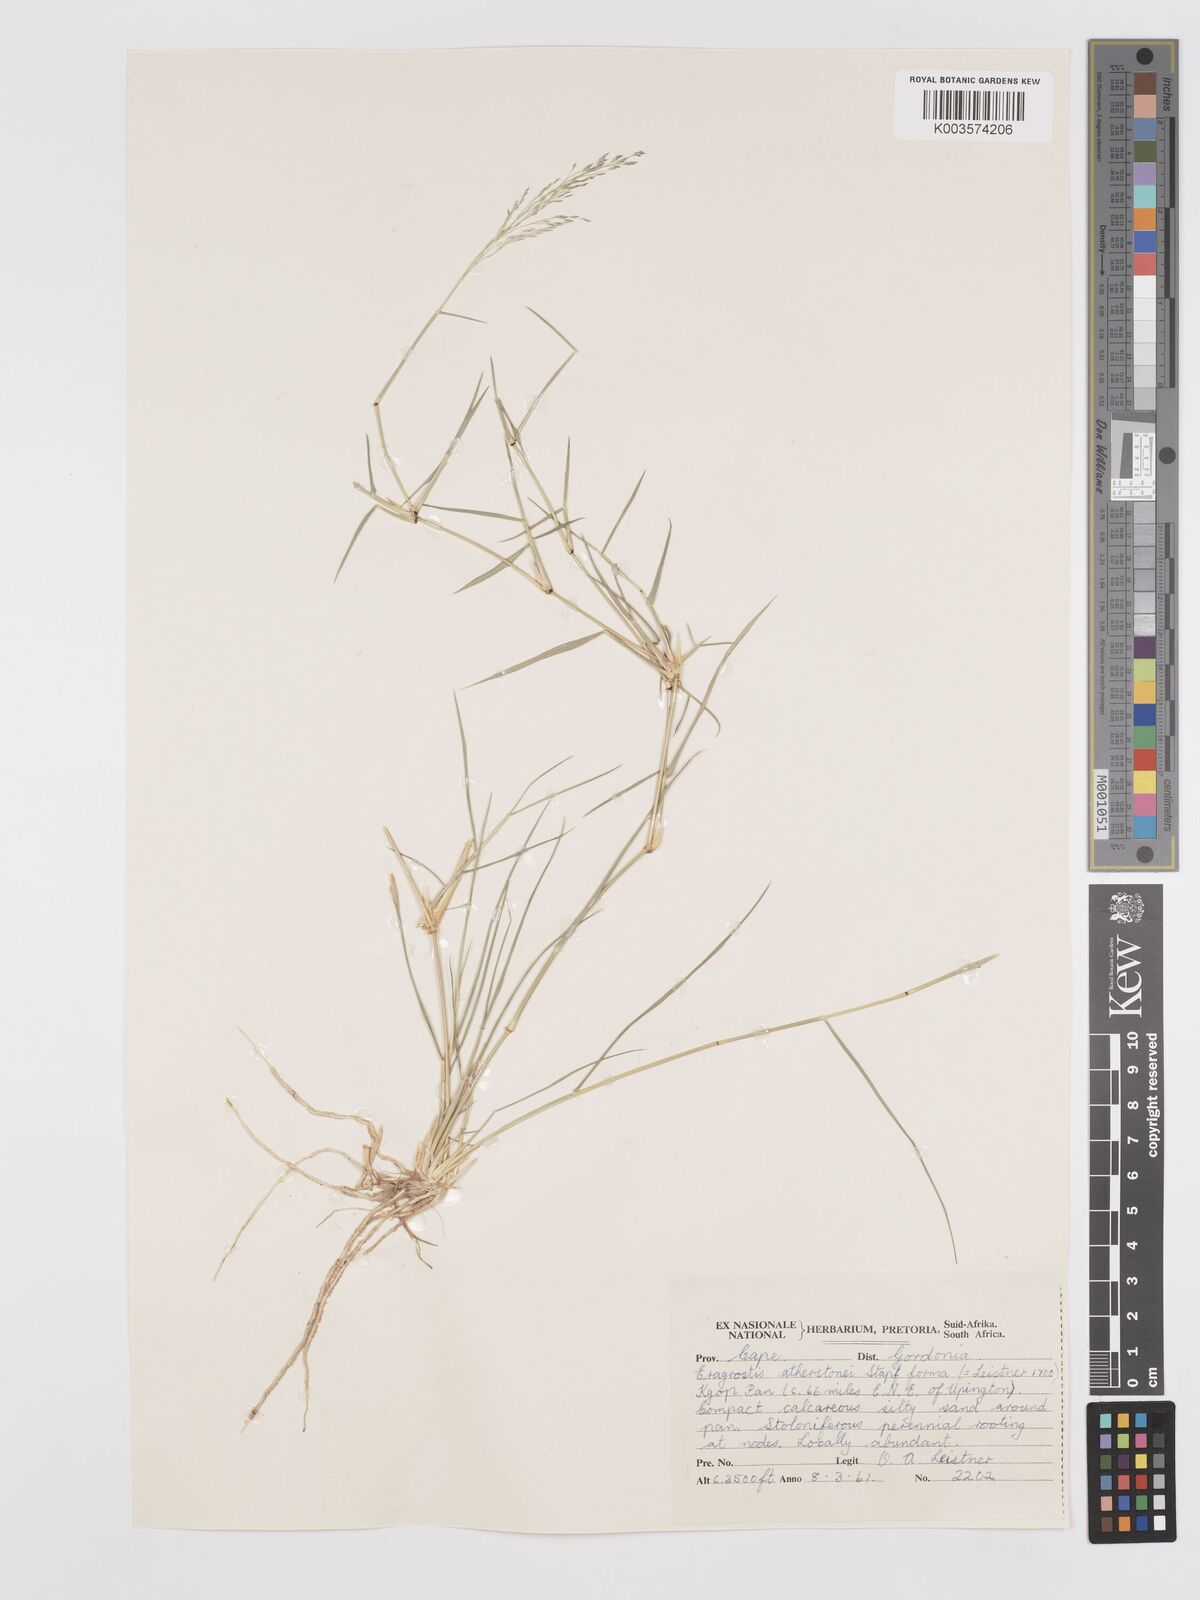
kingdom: Plantae
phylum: Tracheophyta
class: Liliopsida
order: Poales
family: Poaceae
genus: Eragrostis
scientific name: Eragrostis cylindriflora
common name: Cylinderflower lovegrass
